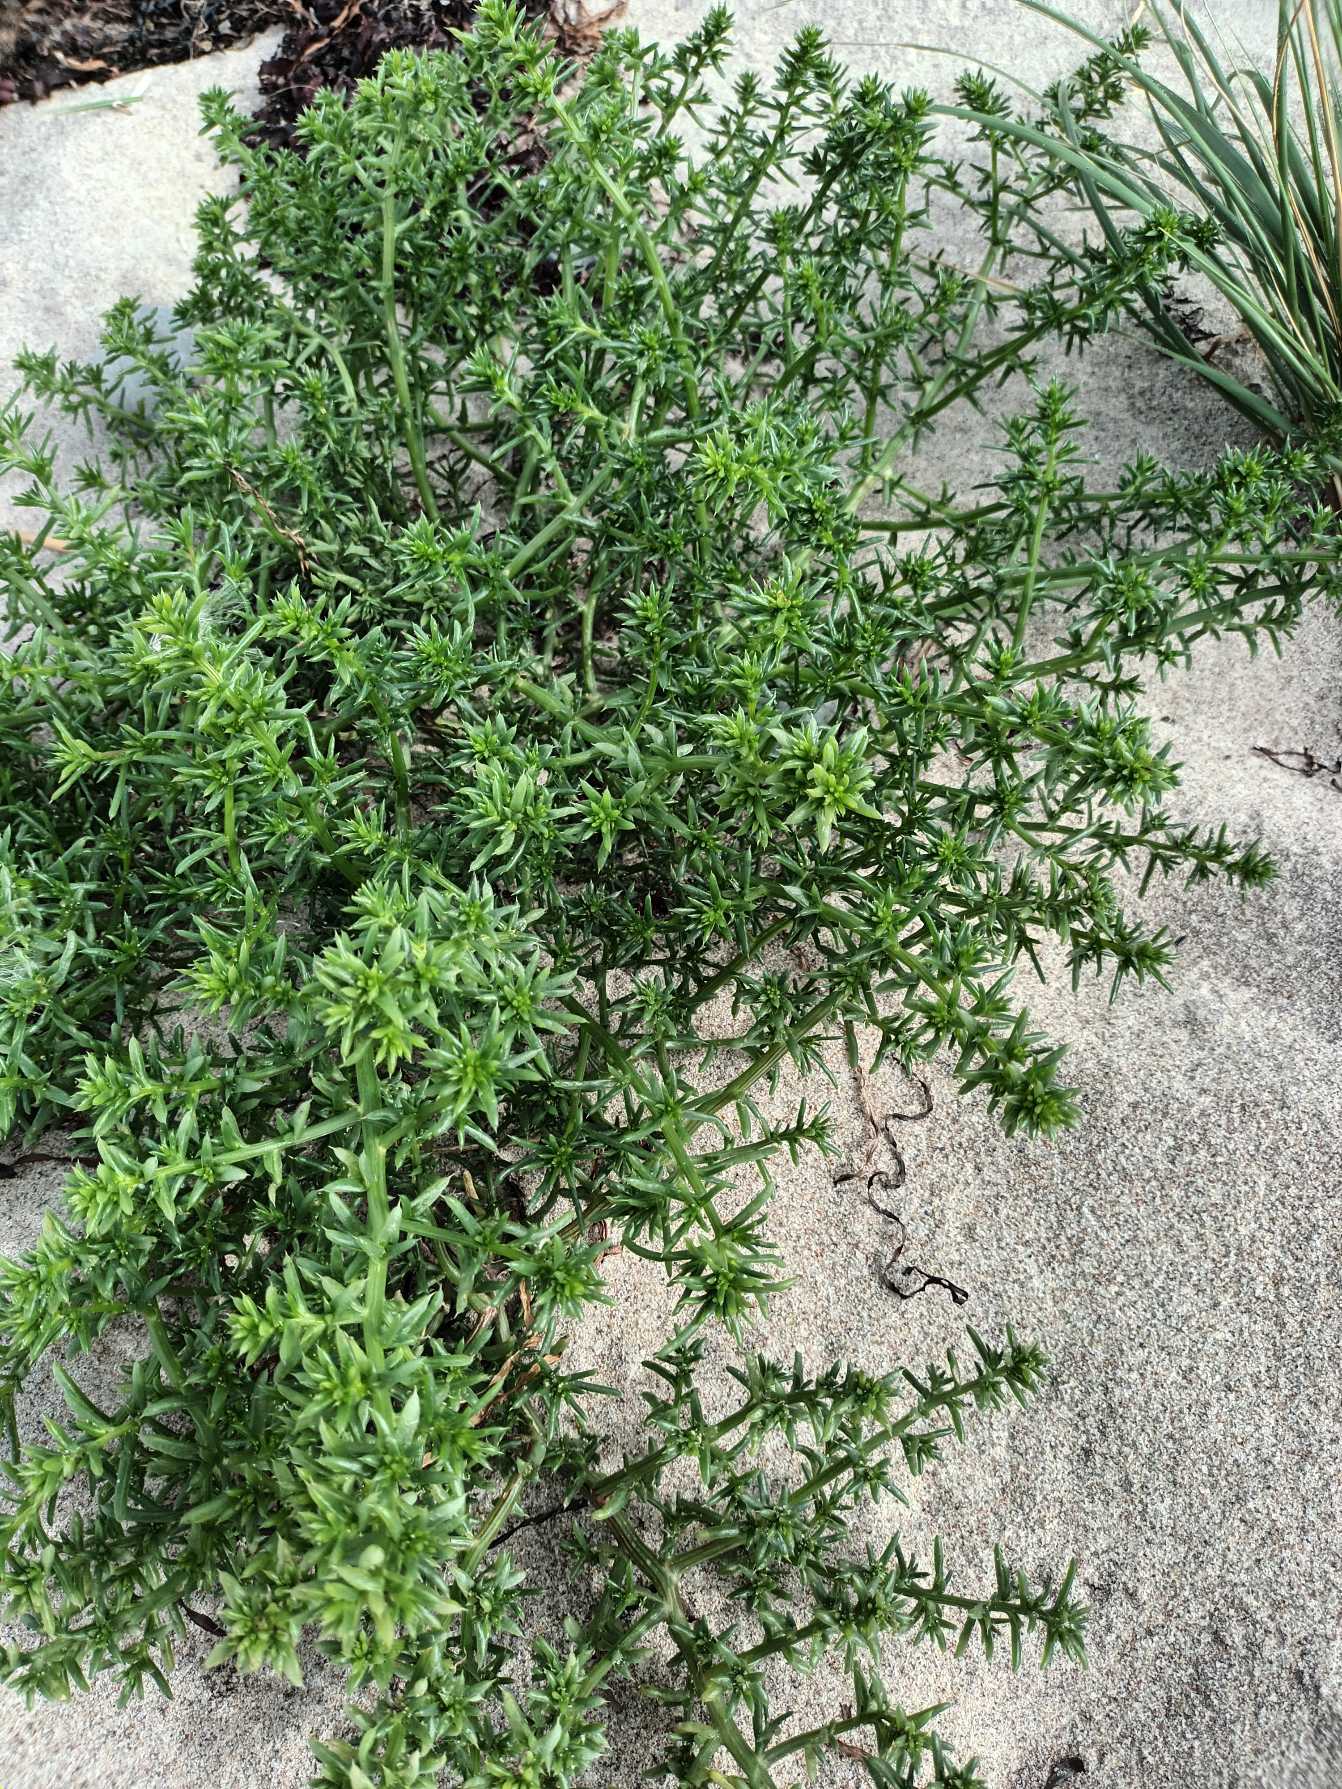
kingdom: Plantae
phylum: Tracheophyta
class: Magnoliopsida
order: Caryophyllales
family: Amaranthaceae
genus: Salsola
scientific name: Salsola kali
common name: Sodaurt
